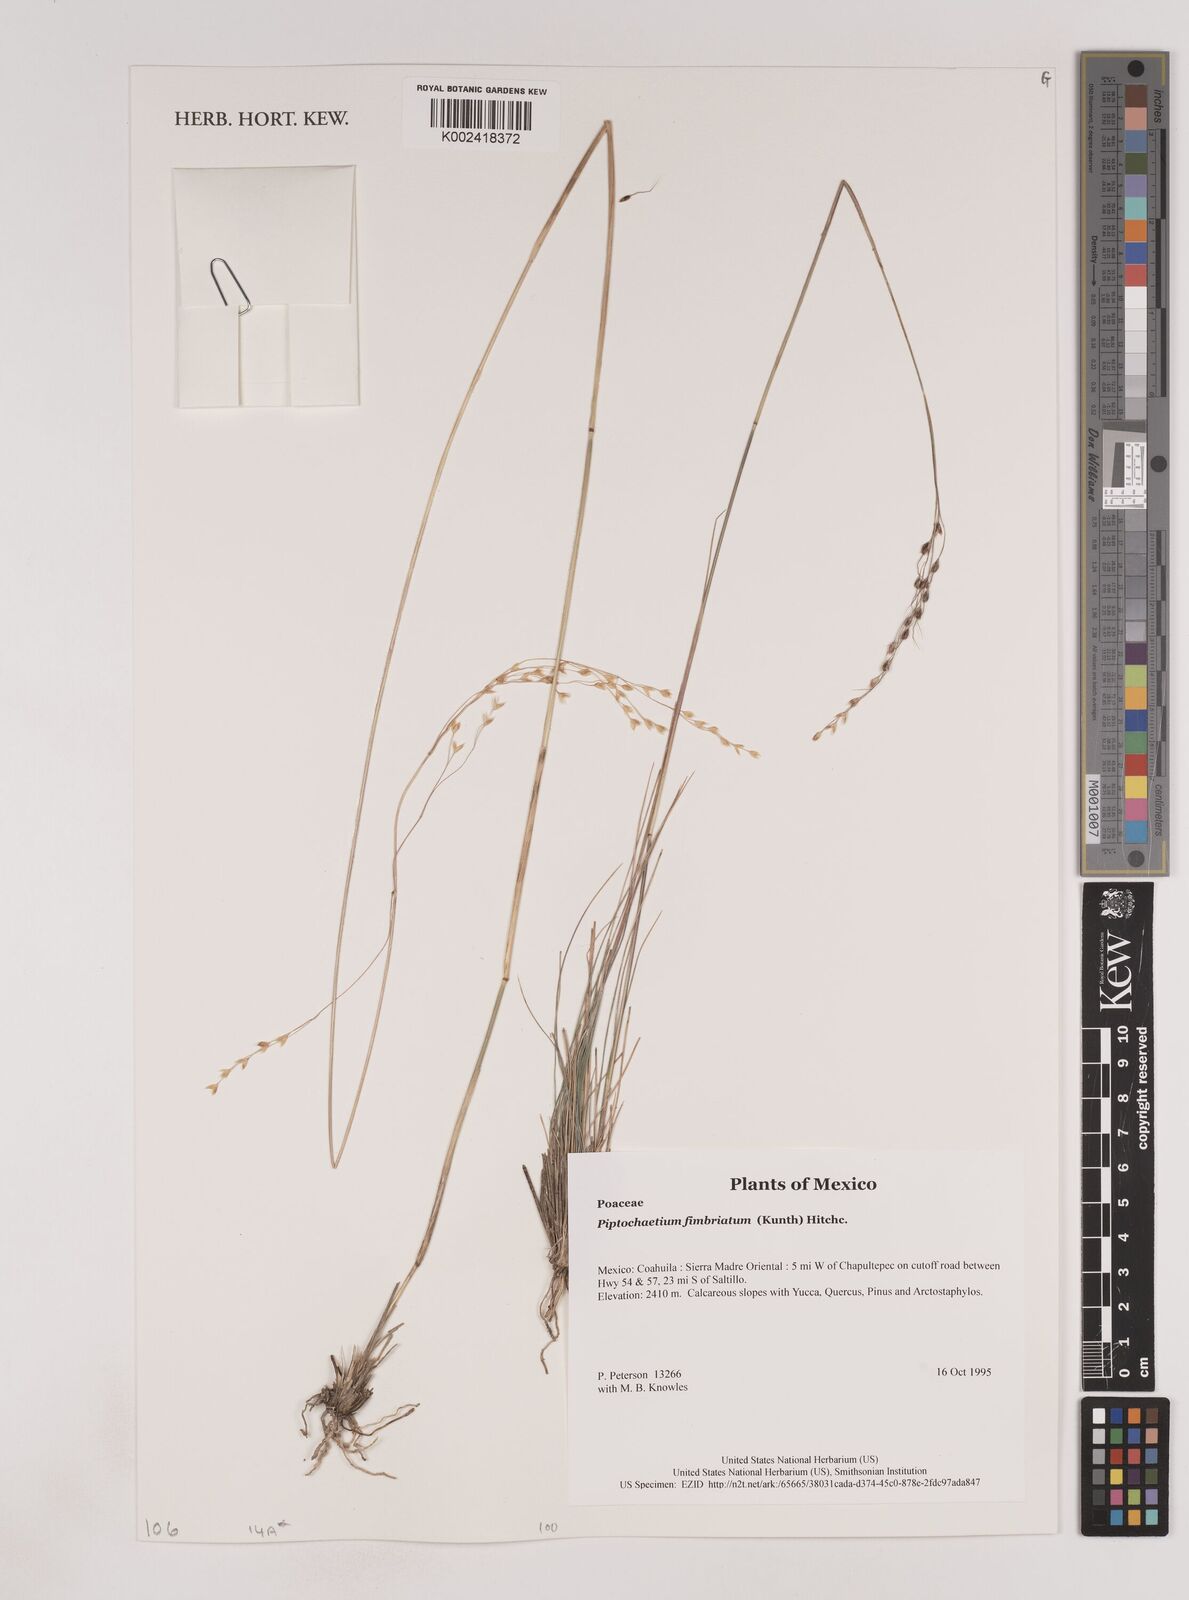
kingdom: Plantae
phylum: Tracheophyta
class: Liliopsida
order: Poales
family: Poaceae
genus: Piptochaetium
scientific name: Piptochaetium fimbriatum
